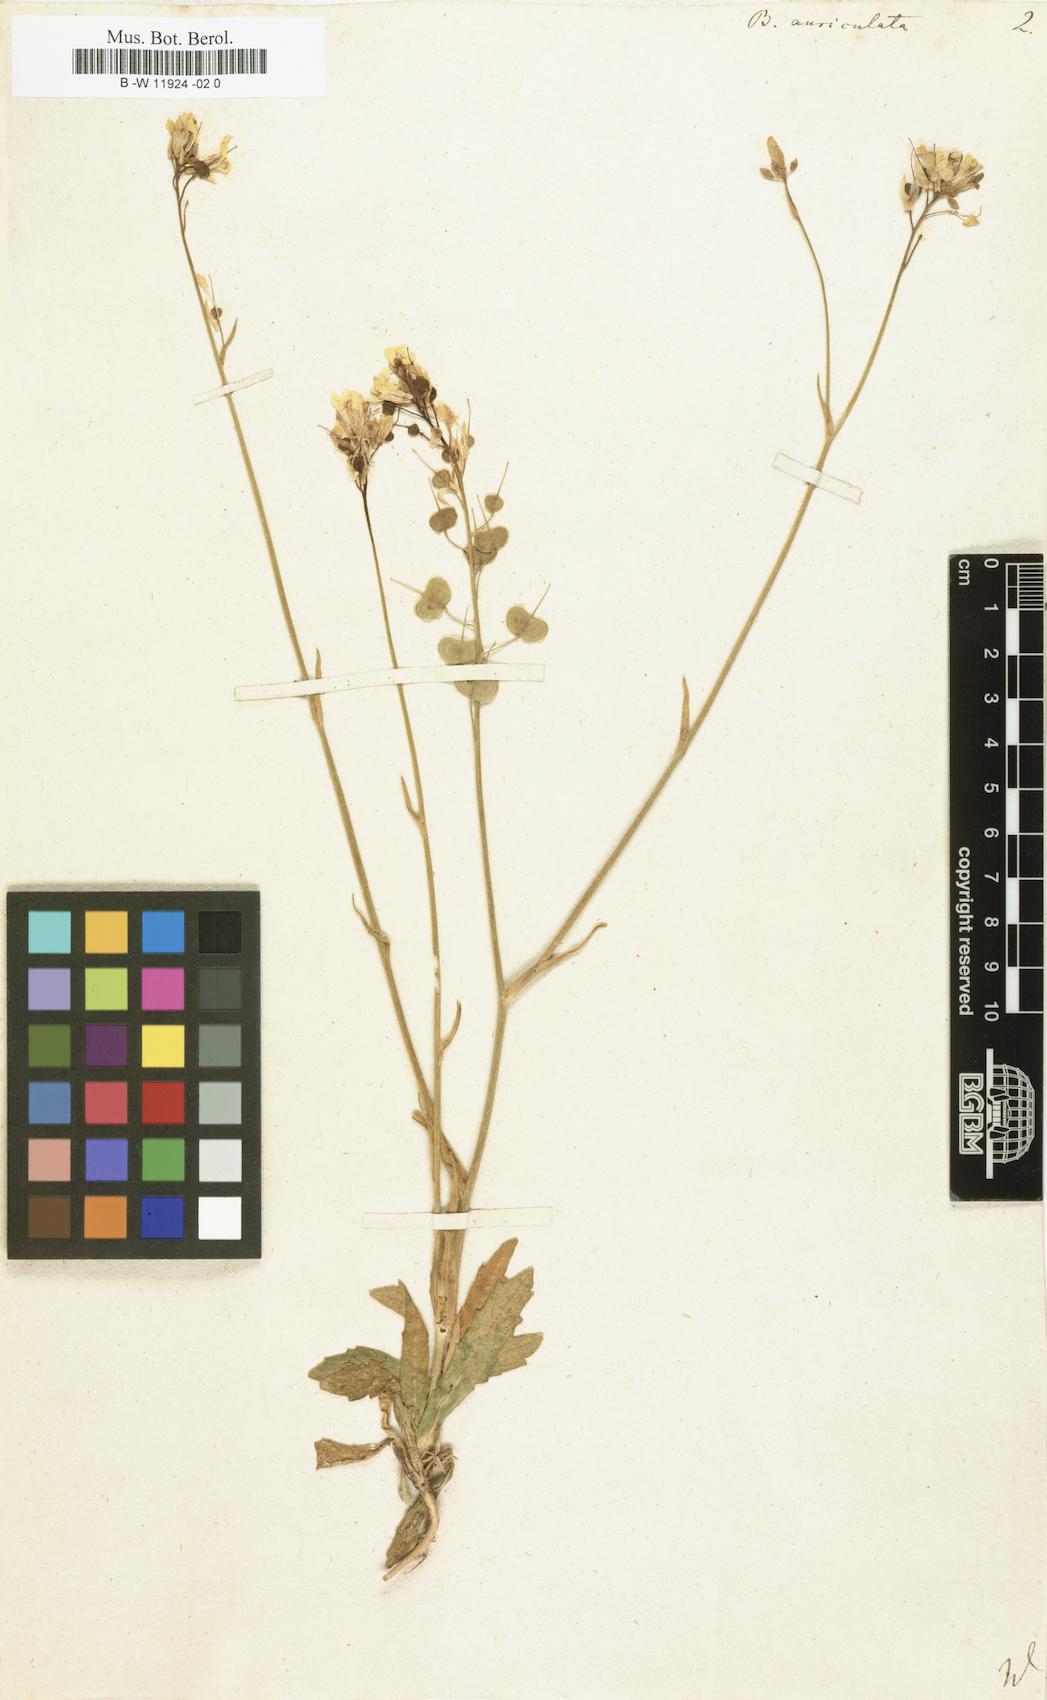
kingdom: Plantae
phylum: Tracheophyta
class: Magnoliopsida
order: Brassicales
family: Brassicaceae
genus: Biscutella
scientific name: Biscutella auriculata
